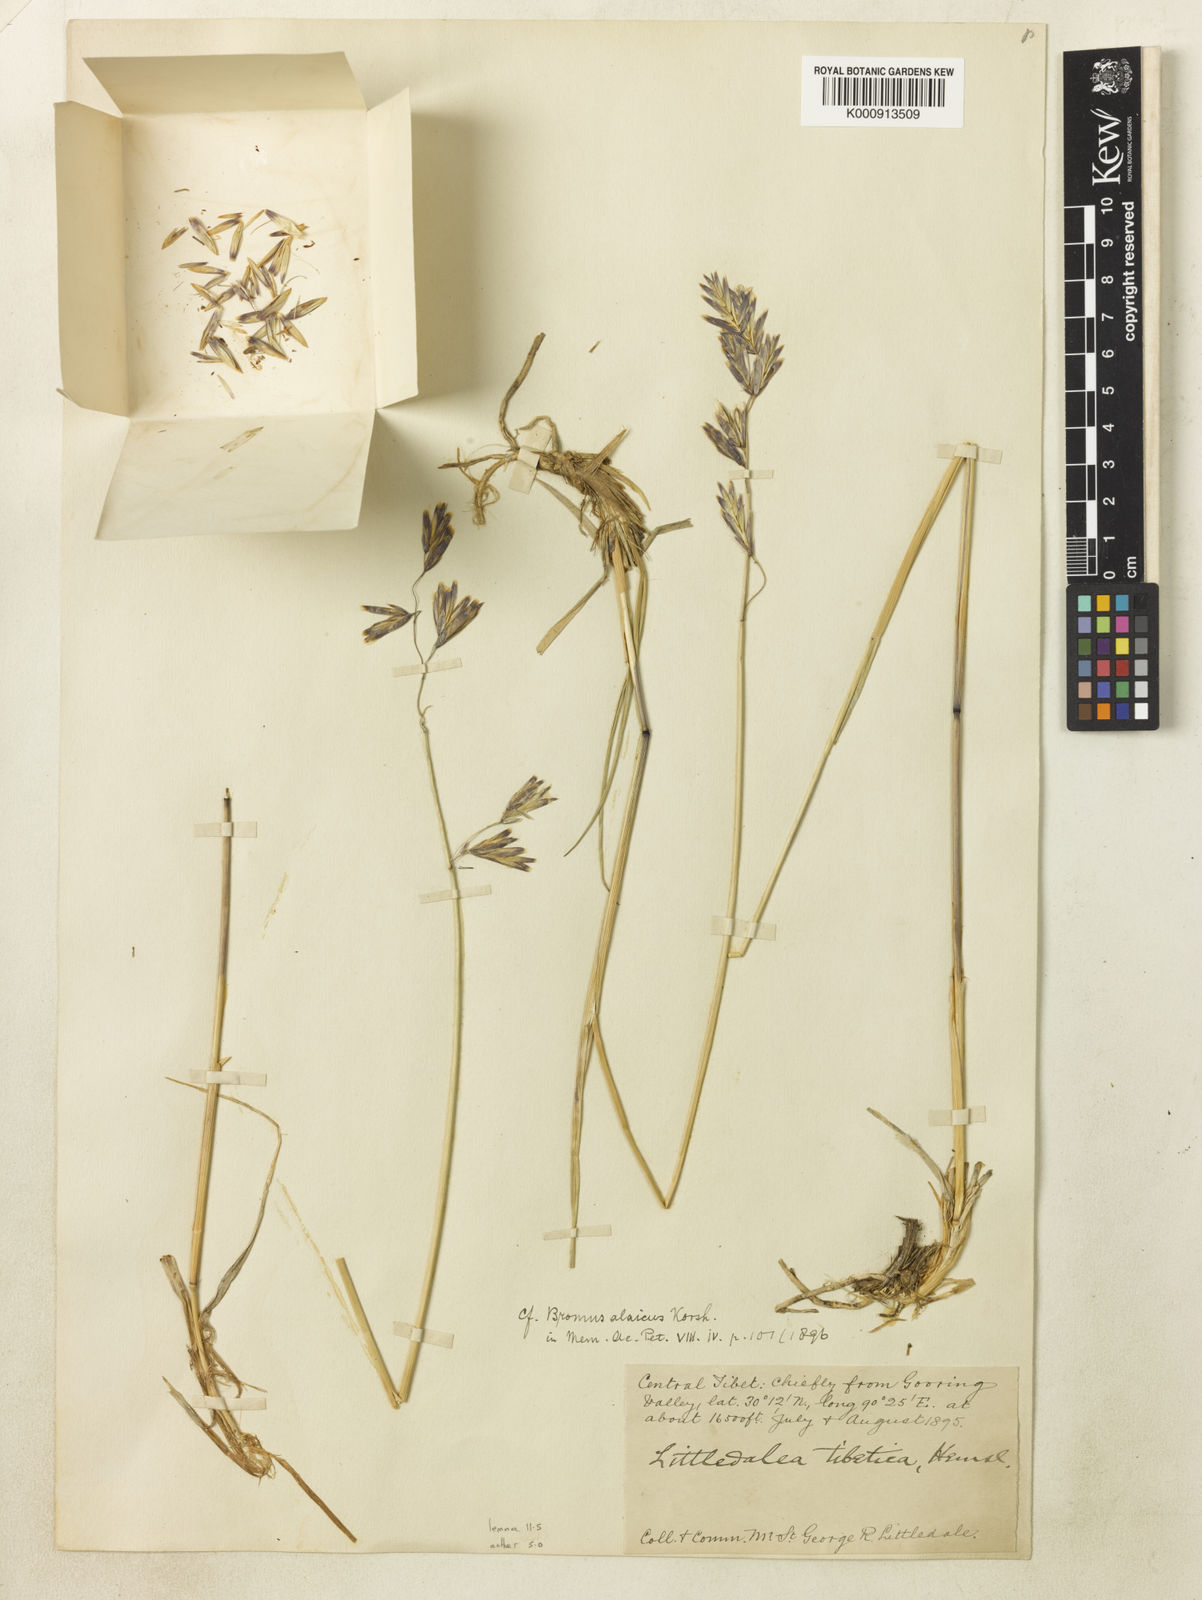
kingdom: Plantae
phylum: Tracheophyta
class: Liliopsida
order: Poales
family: Poaceae
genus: Littledalea
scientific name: Littledalea tibetica
